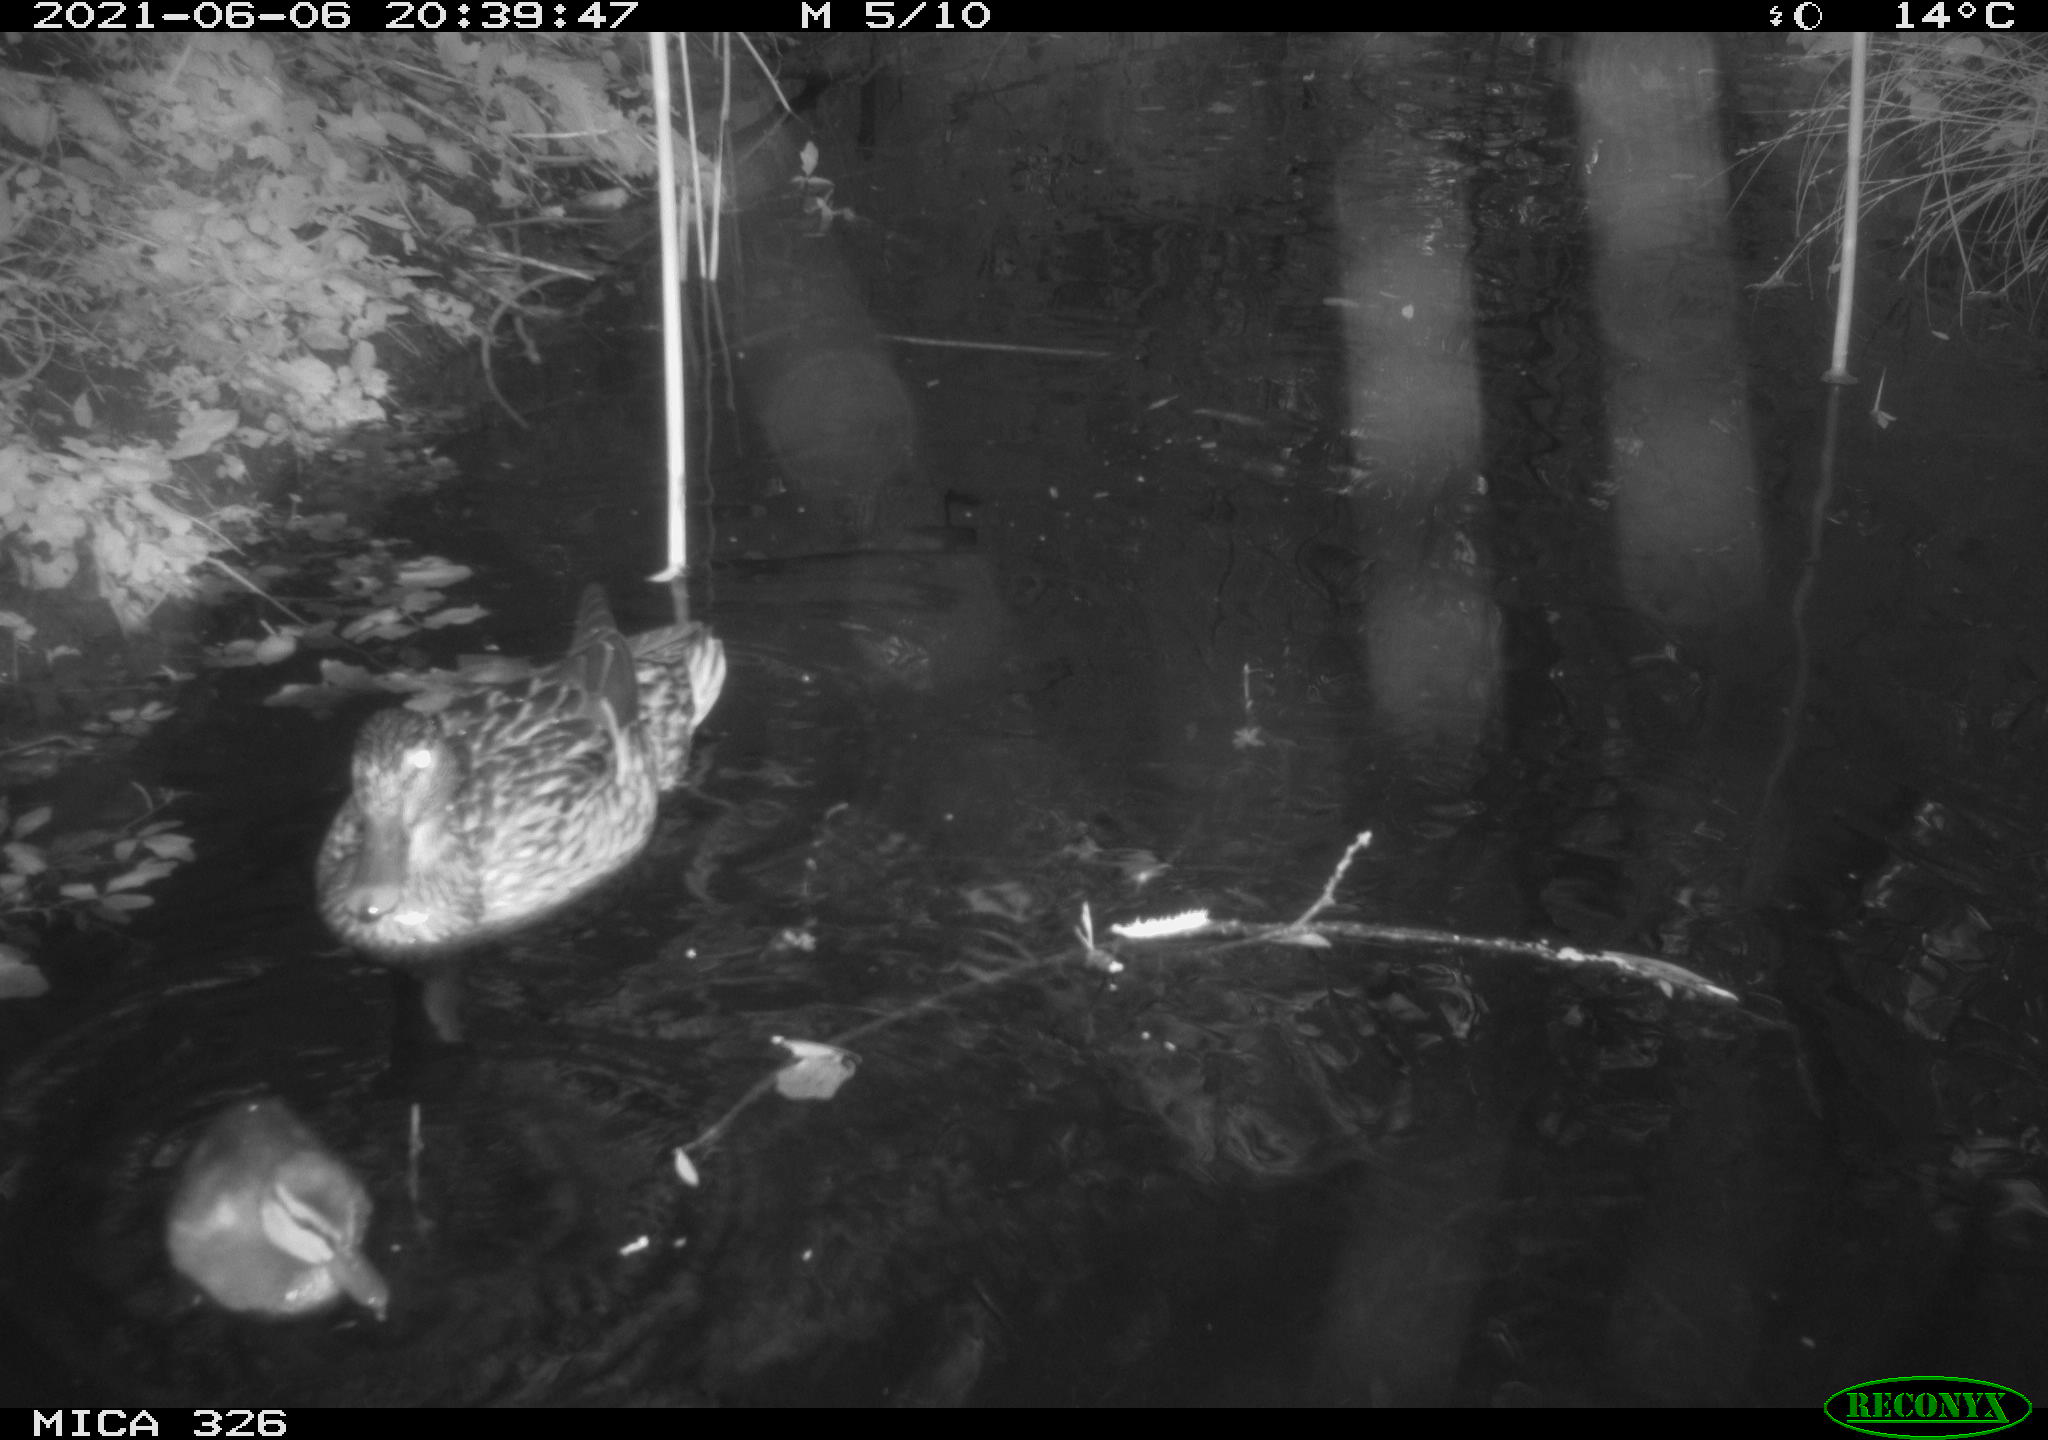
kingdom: Animalia
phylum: Chordata
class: Aves
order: Anseriformes
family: Anatidae
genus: Anas
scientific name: Anas platyrhynchos
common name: Mallard
